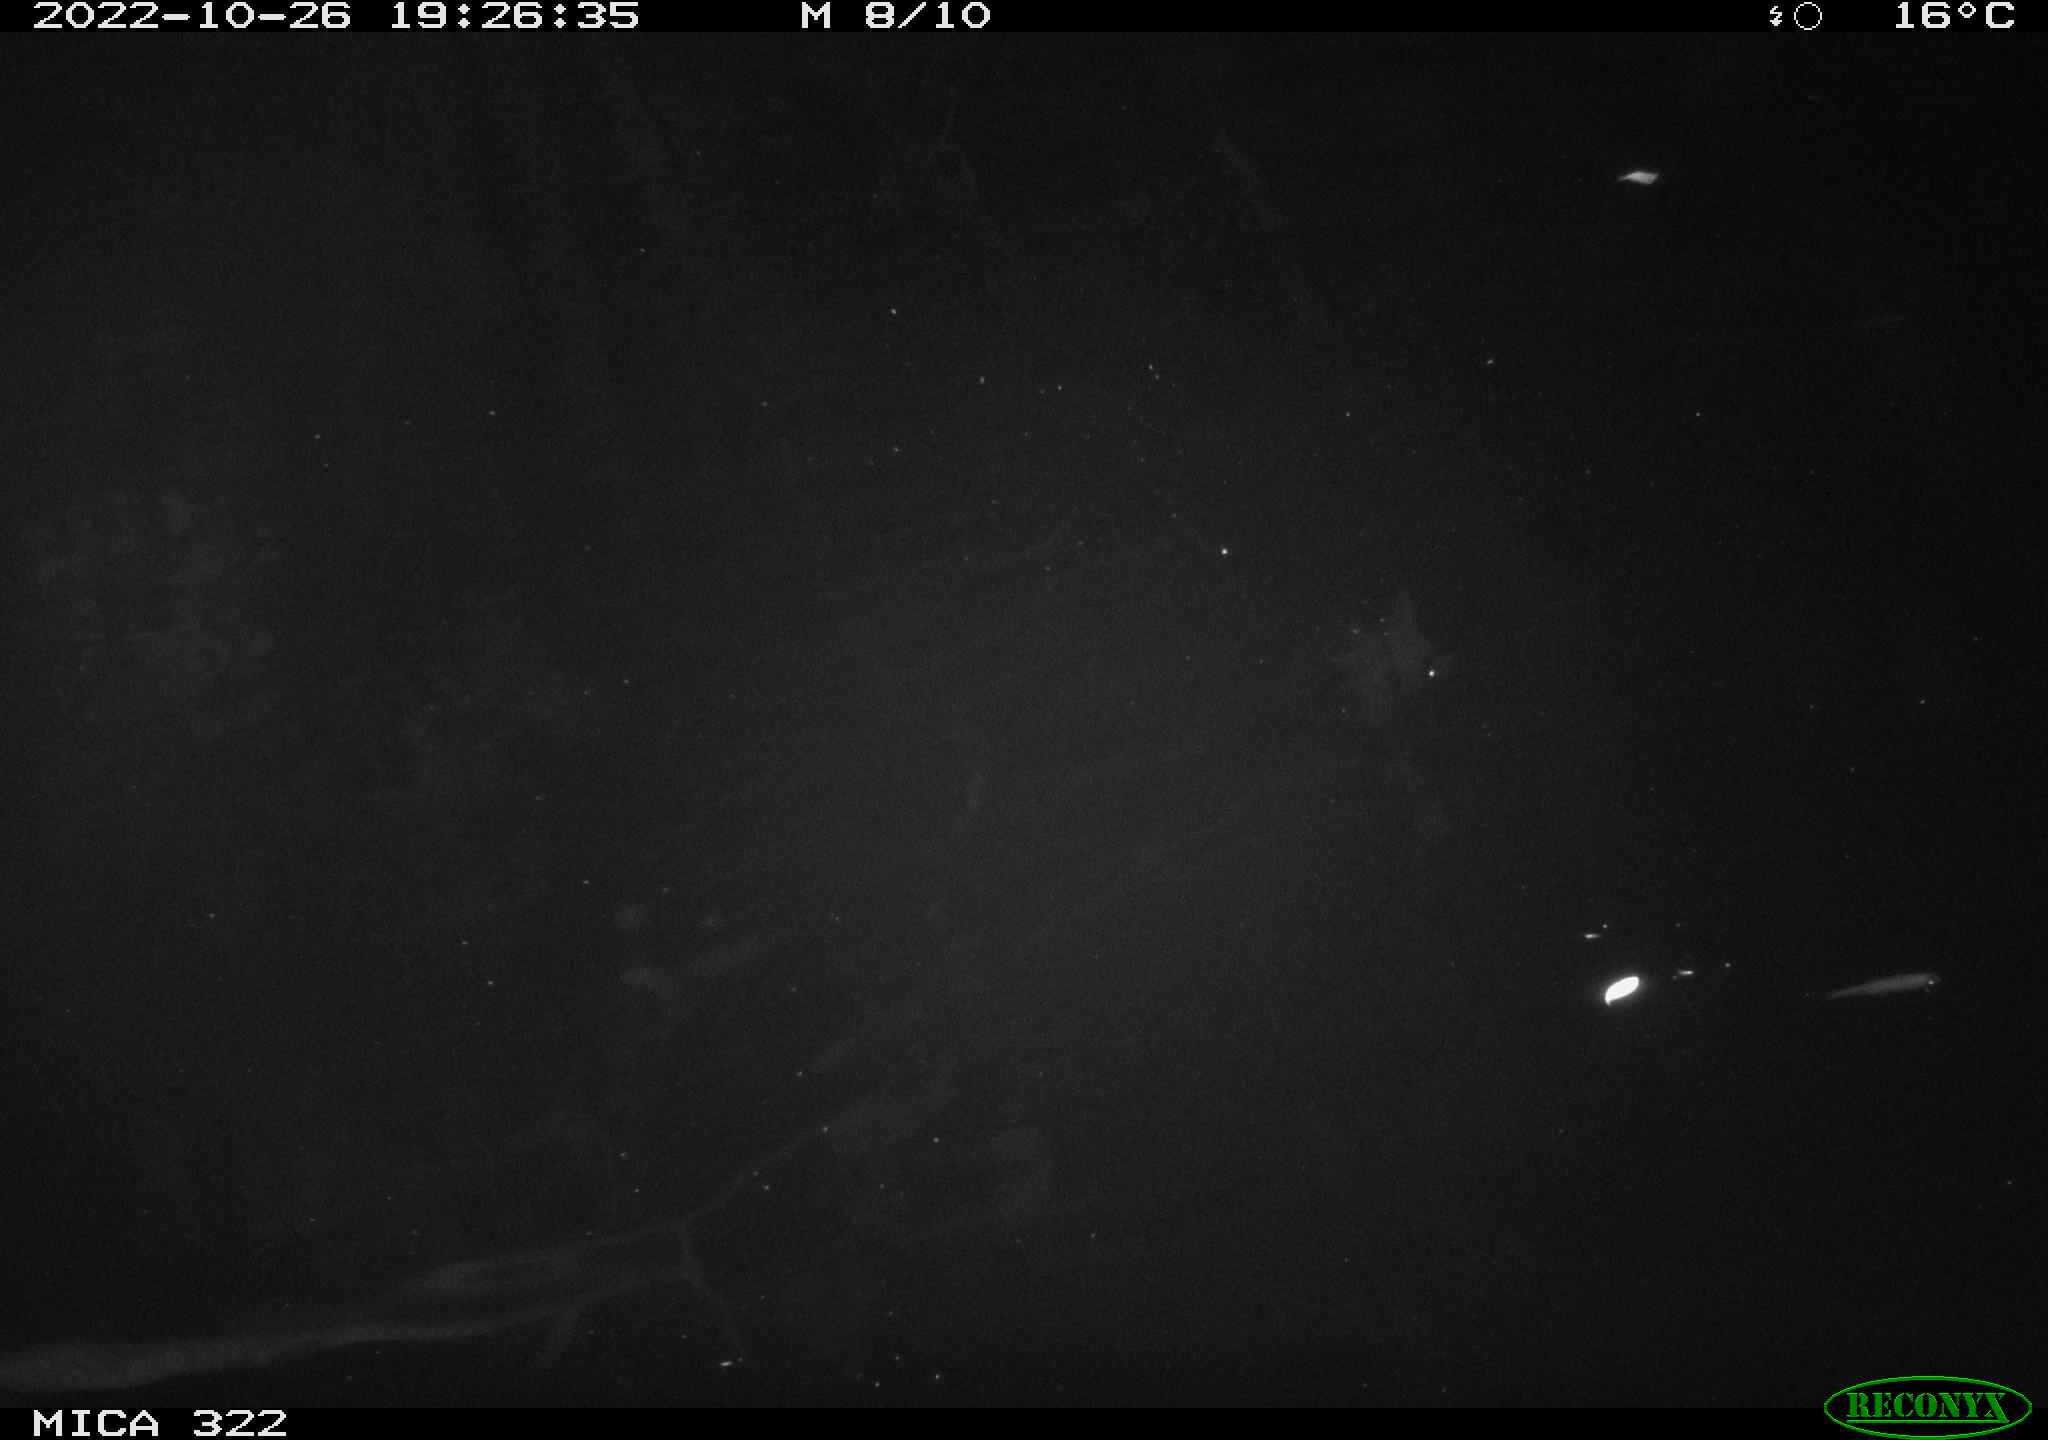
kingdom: Animalia
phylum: Chordata
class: Mammalia
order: Rodentia
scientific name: Rodentia
